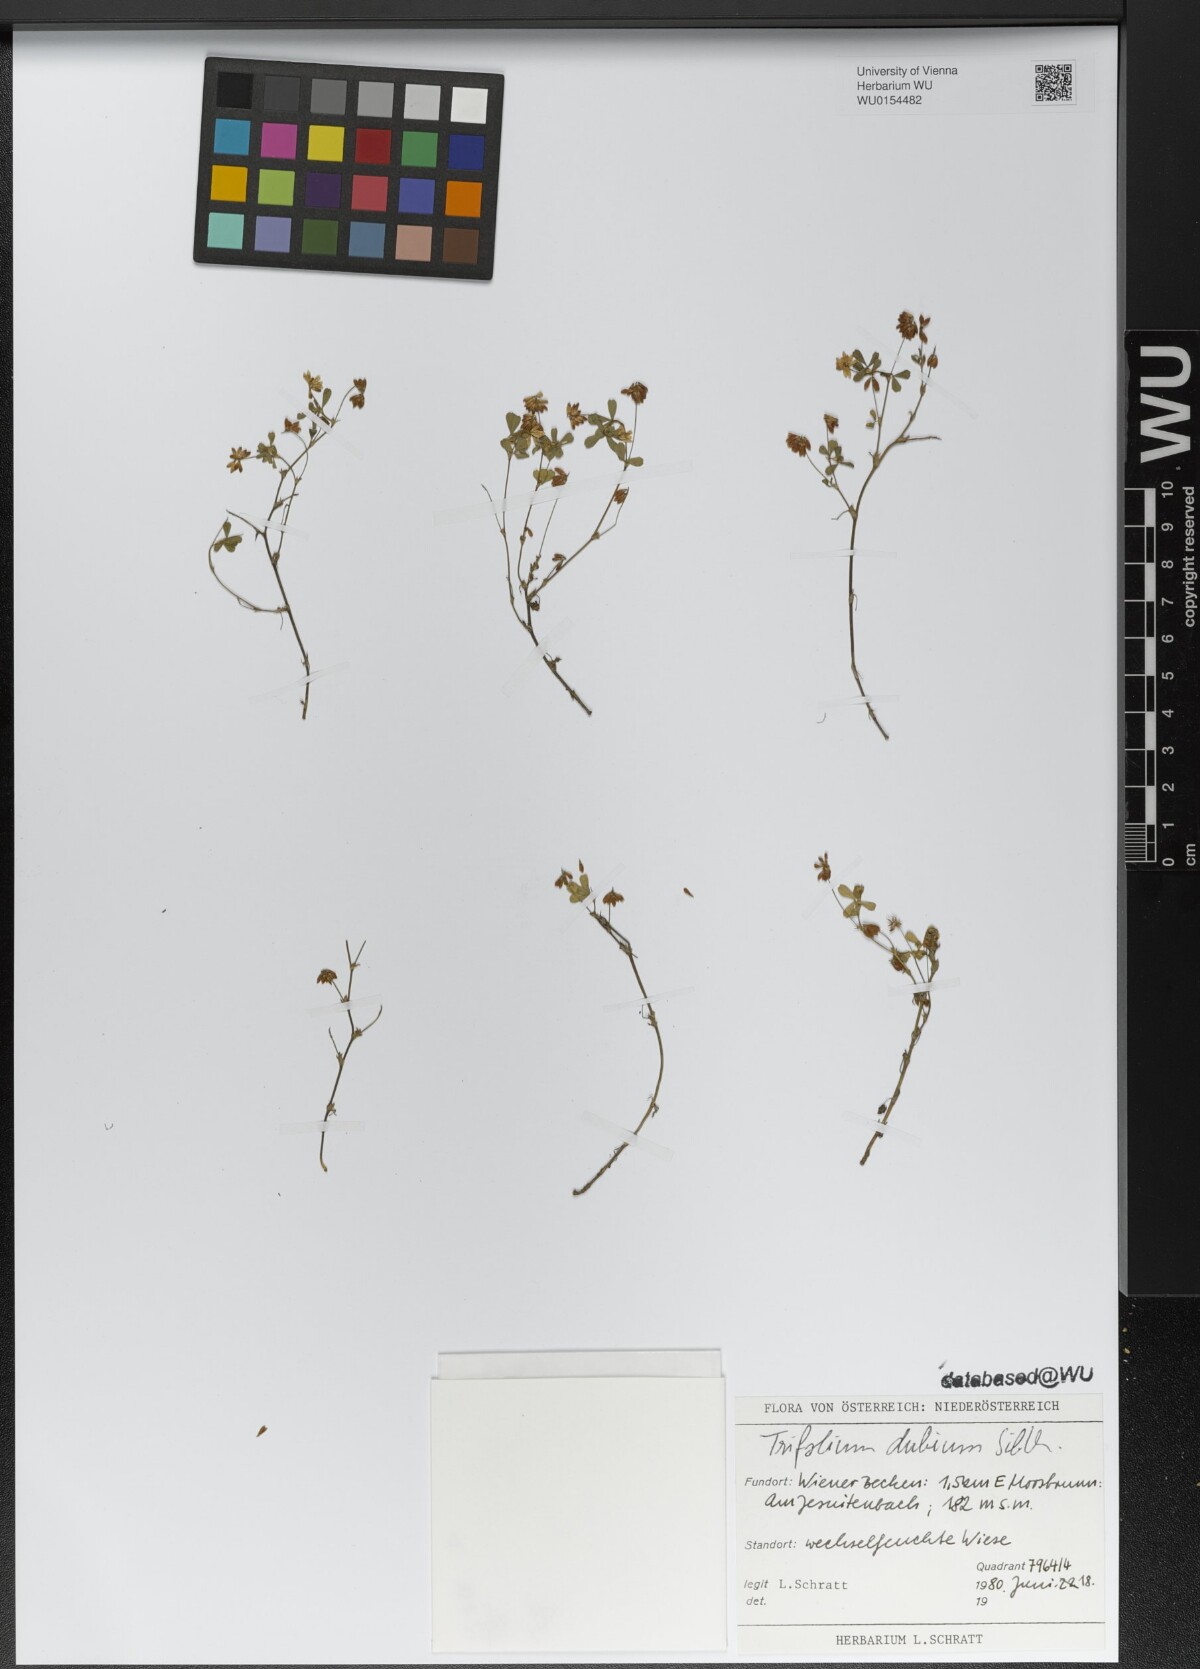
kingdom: Plantae
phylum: Tracheophyta
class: Magnoliopsida
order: Fabales
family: Fabaceae
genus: Trifolium
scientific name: Trifolium dubium
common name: Suckling clover
